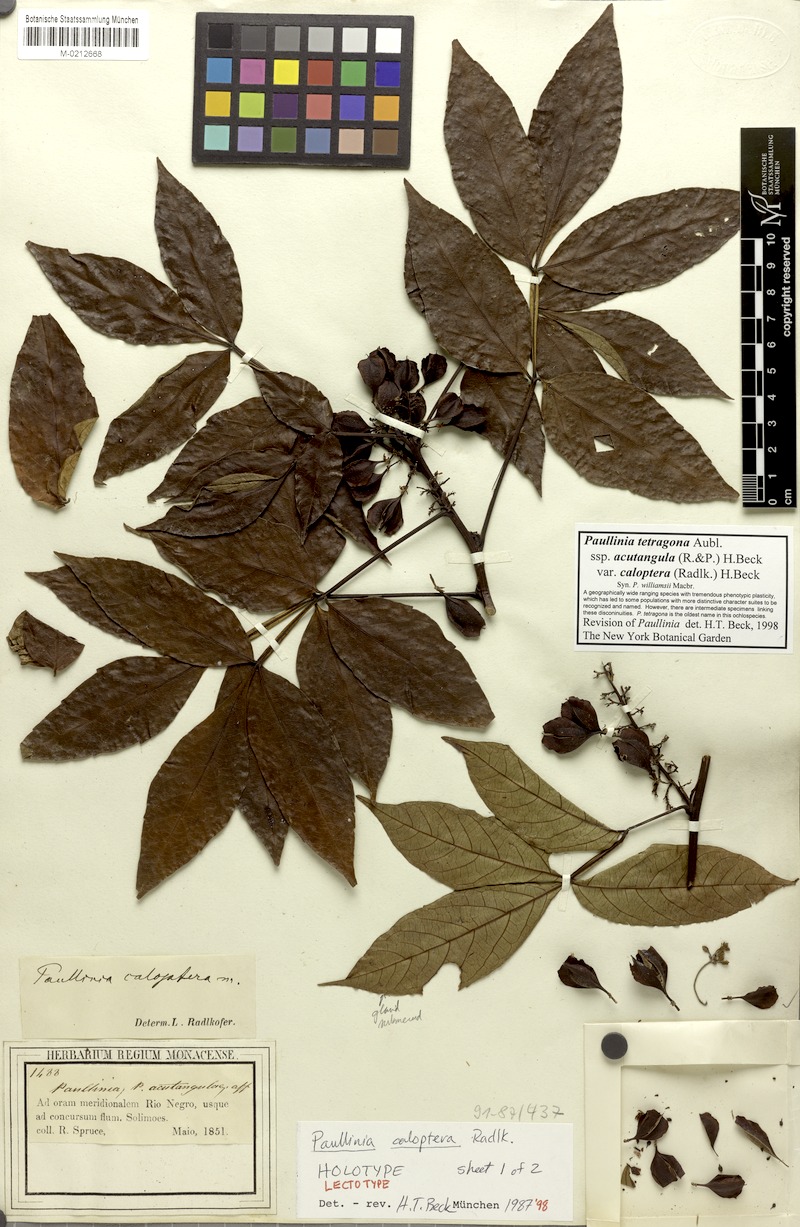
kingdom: Plantae
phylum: Tracheophyta
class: Magnoliopsida
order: Sapindales
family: Sapindaceae
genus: Paullinia
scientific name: Paullinia tetragona
